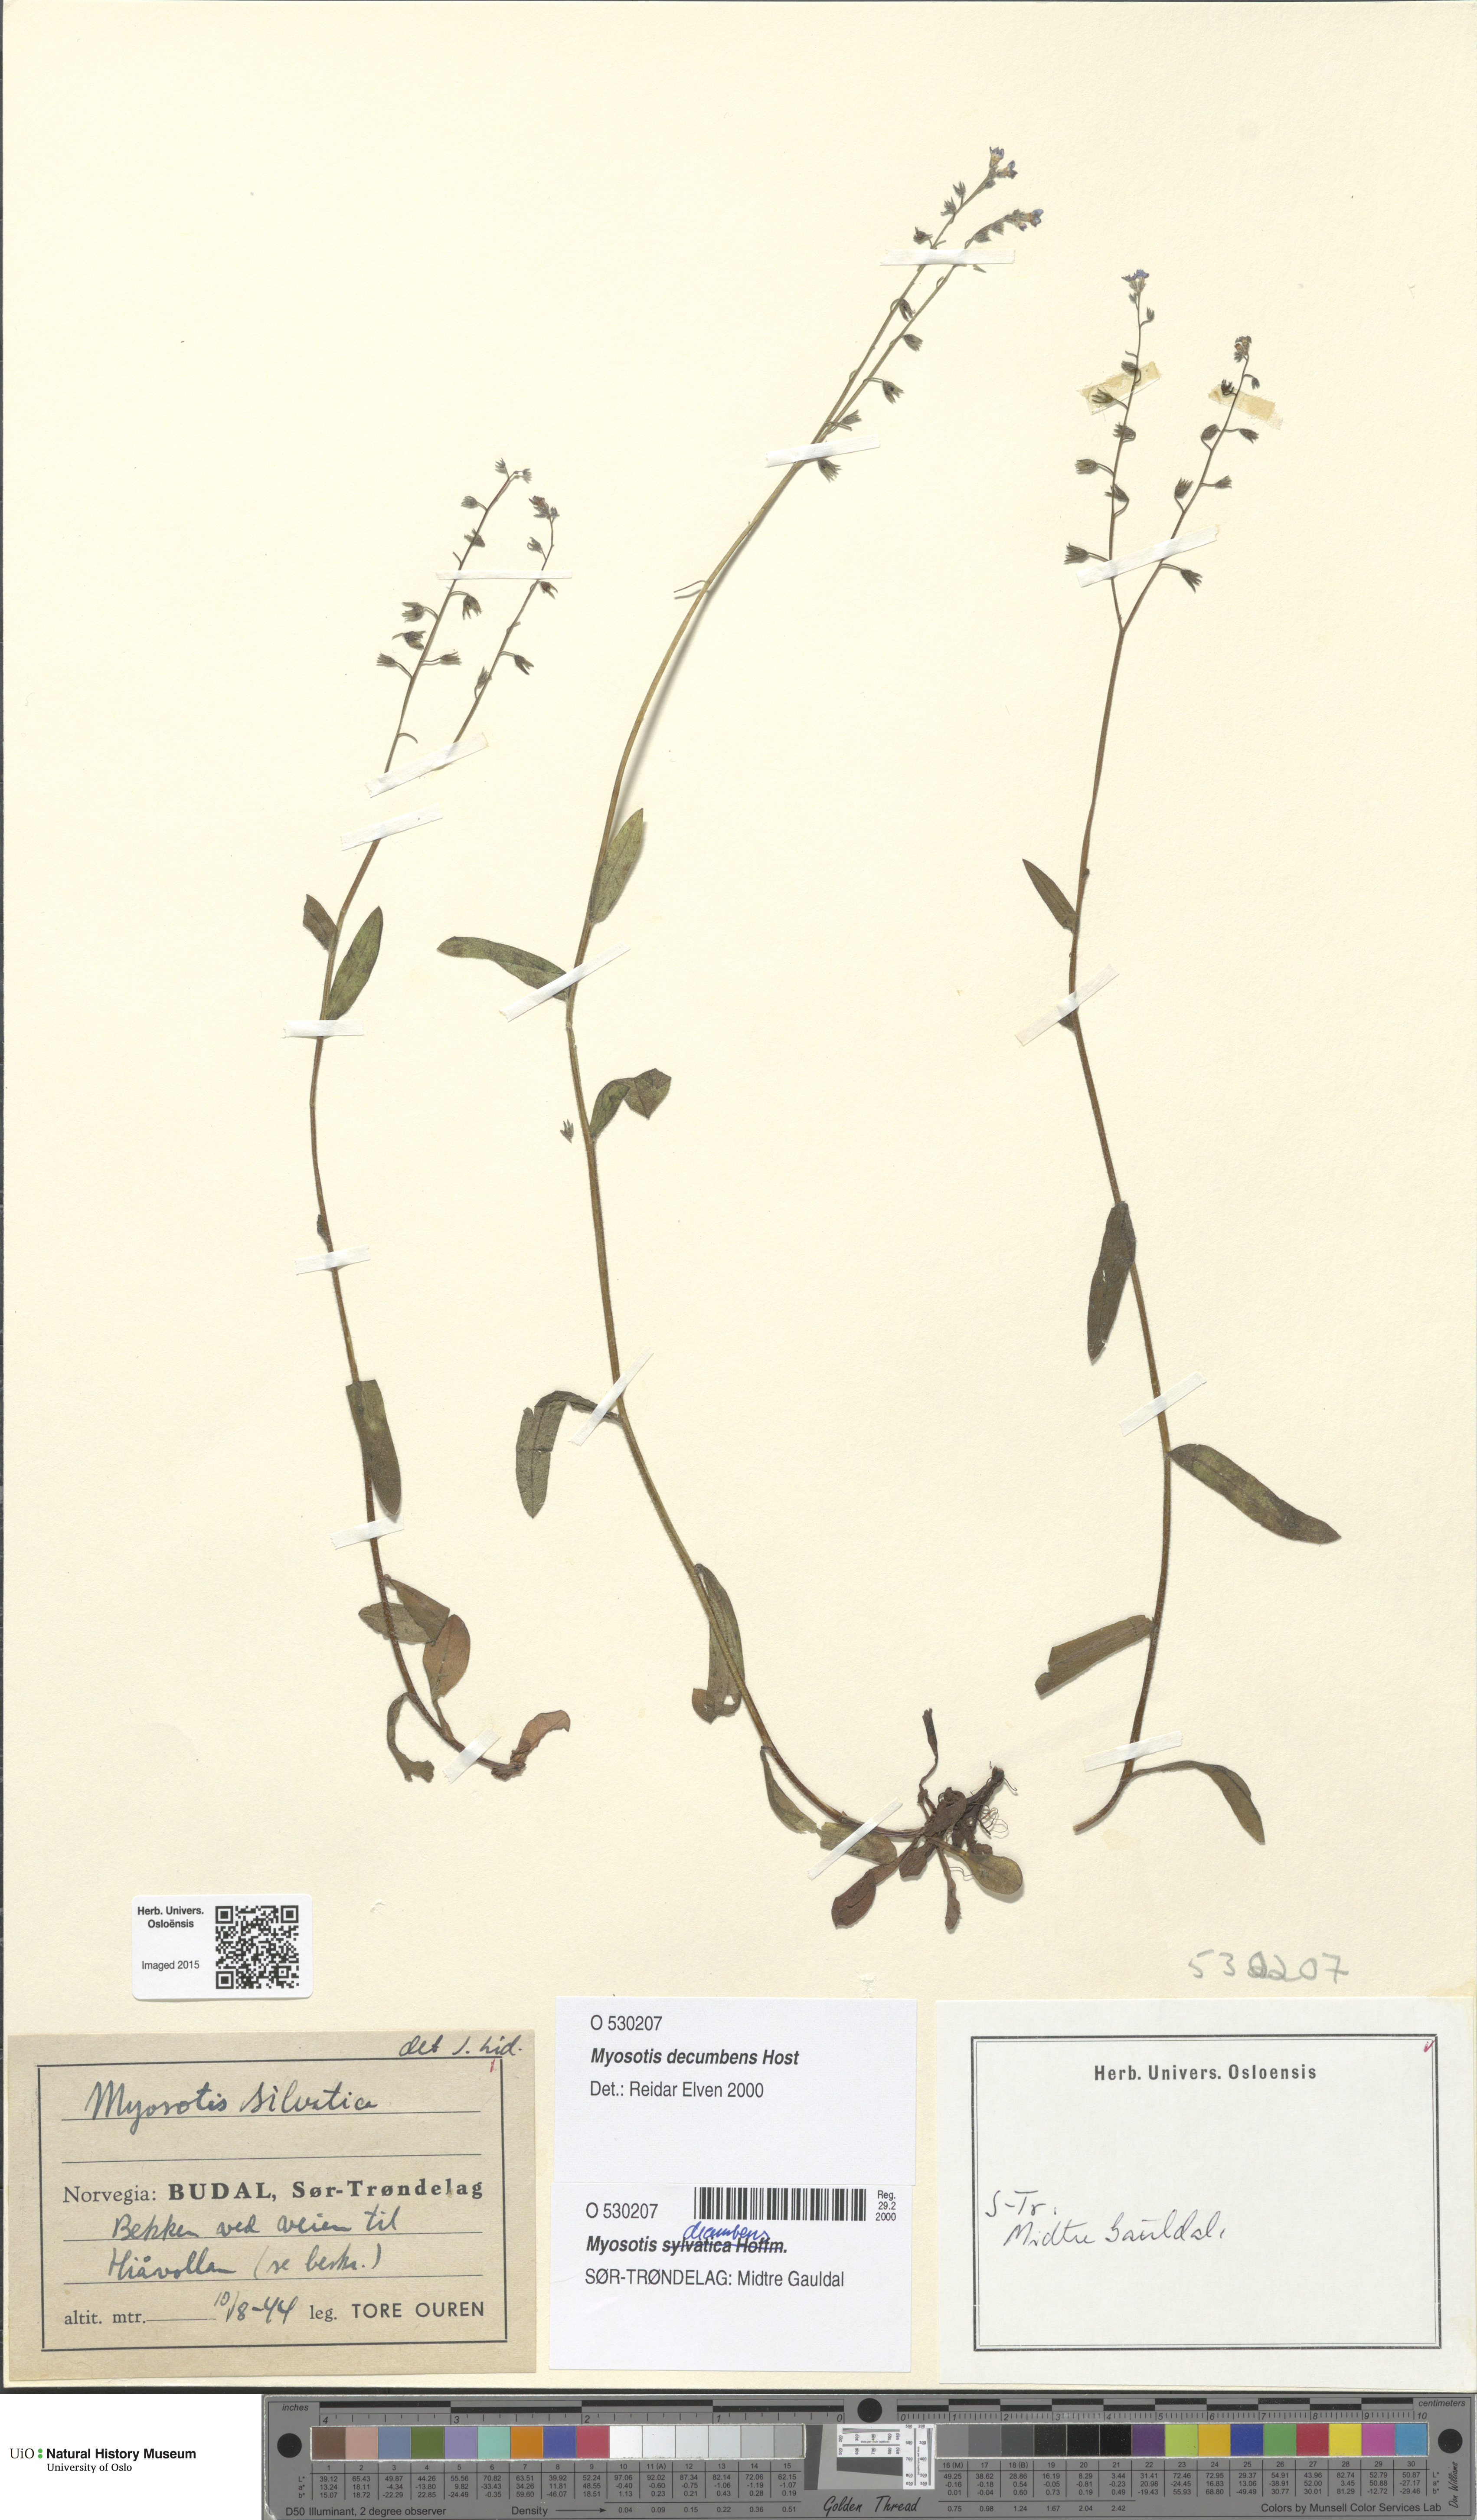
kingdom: Plantae
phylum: Tracheophyta
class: Magnoliopsida
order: Boraginales
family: Boraginaceae
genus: Myosotis
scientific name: Myosotis decumbens
